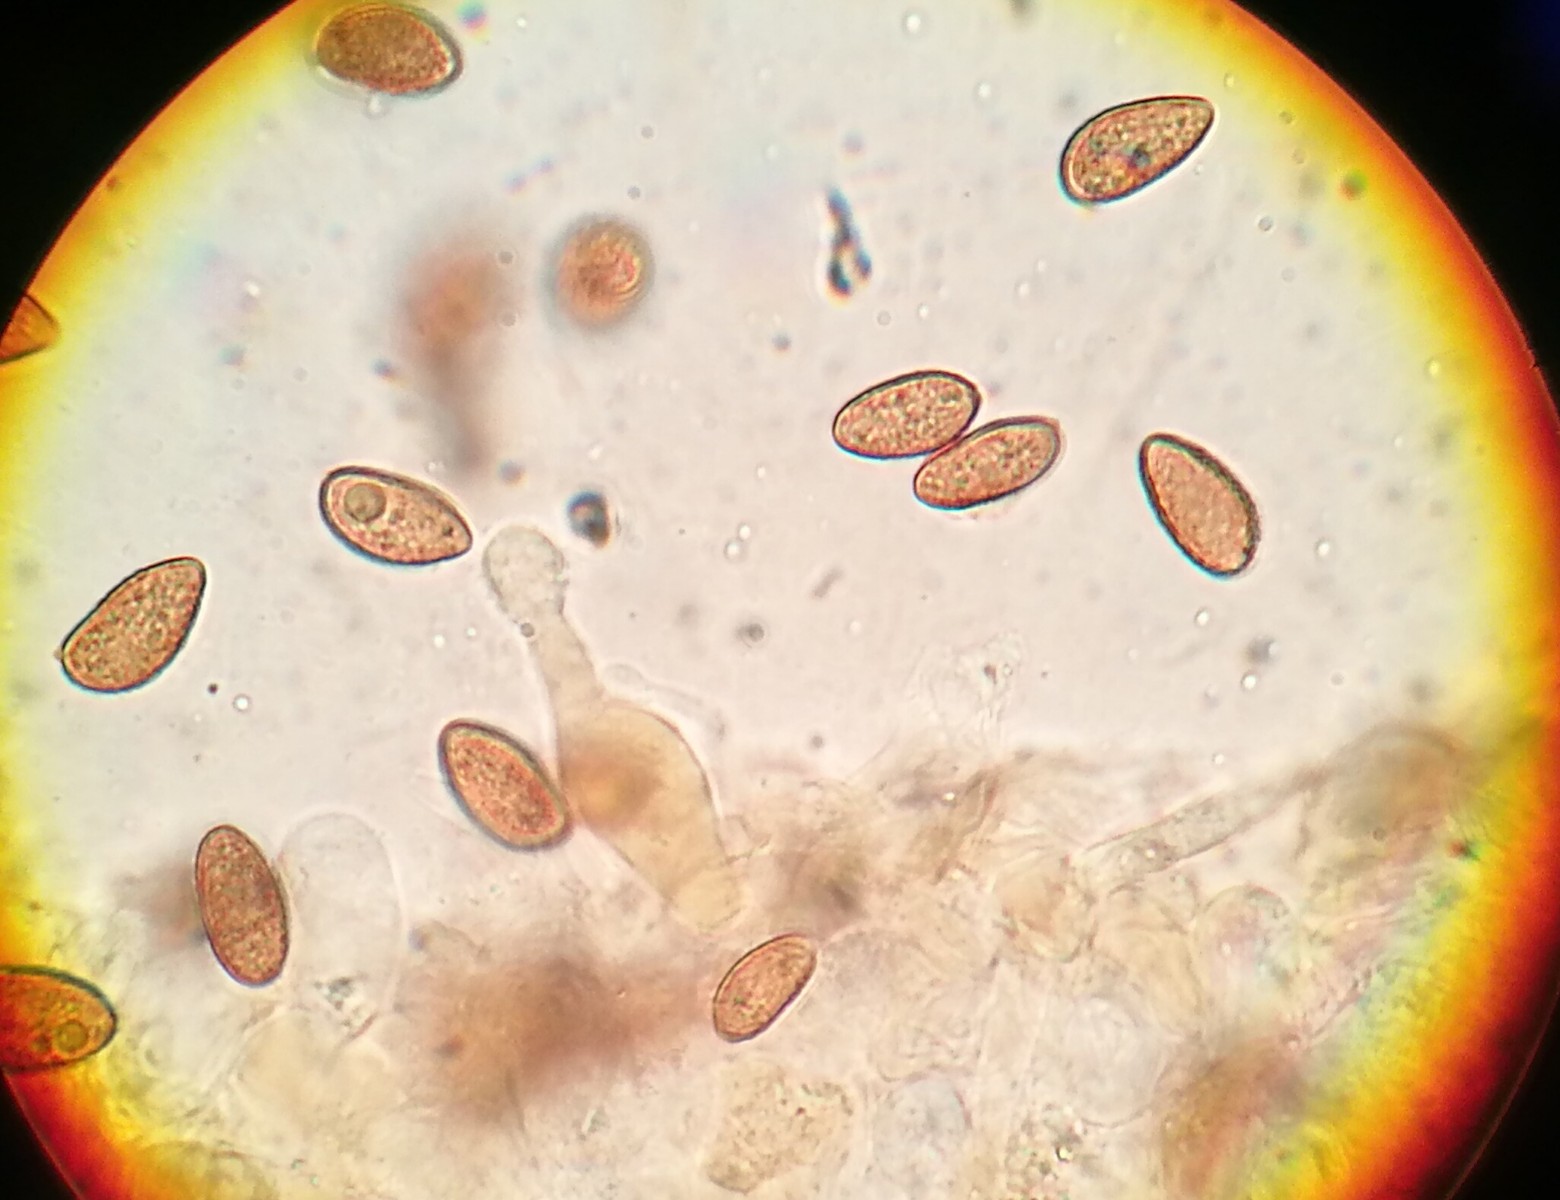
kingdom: Fungi
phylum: Basidiomycota
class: Agaricomycetes
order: Agaricales
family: Hymenogastraceae
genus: Galerina
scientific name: Galerina clavata
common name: kær-hjelmhat
